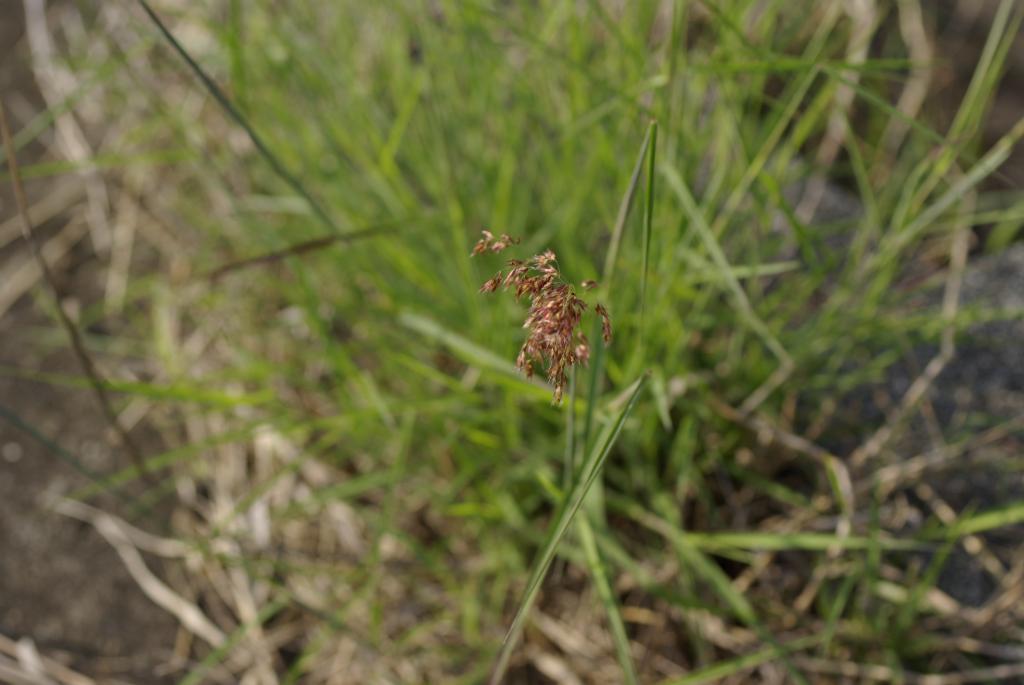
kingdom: Plantae
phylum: Tracheophyta
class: Liliopsida
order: Poales
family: Poaceae
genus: Melinis
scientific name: Melinis repens
